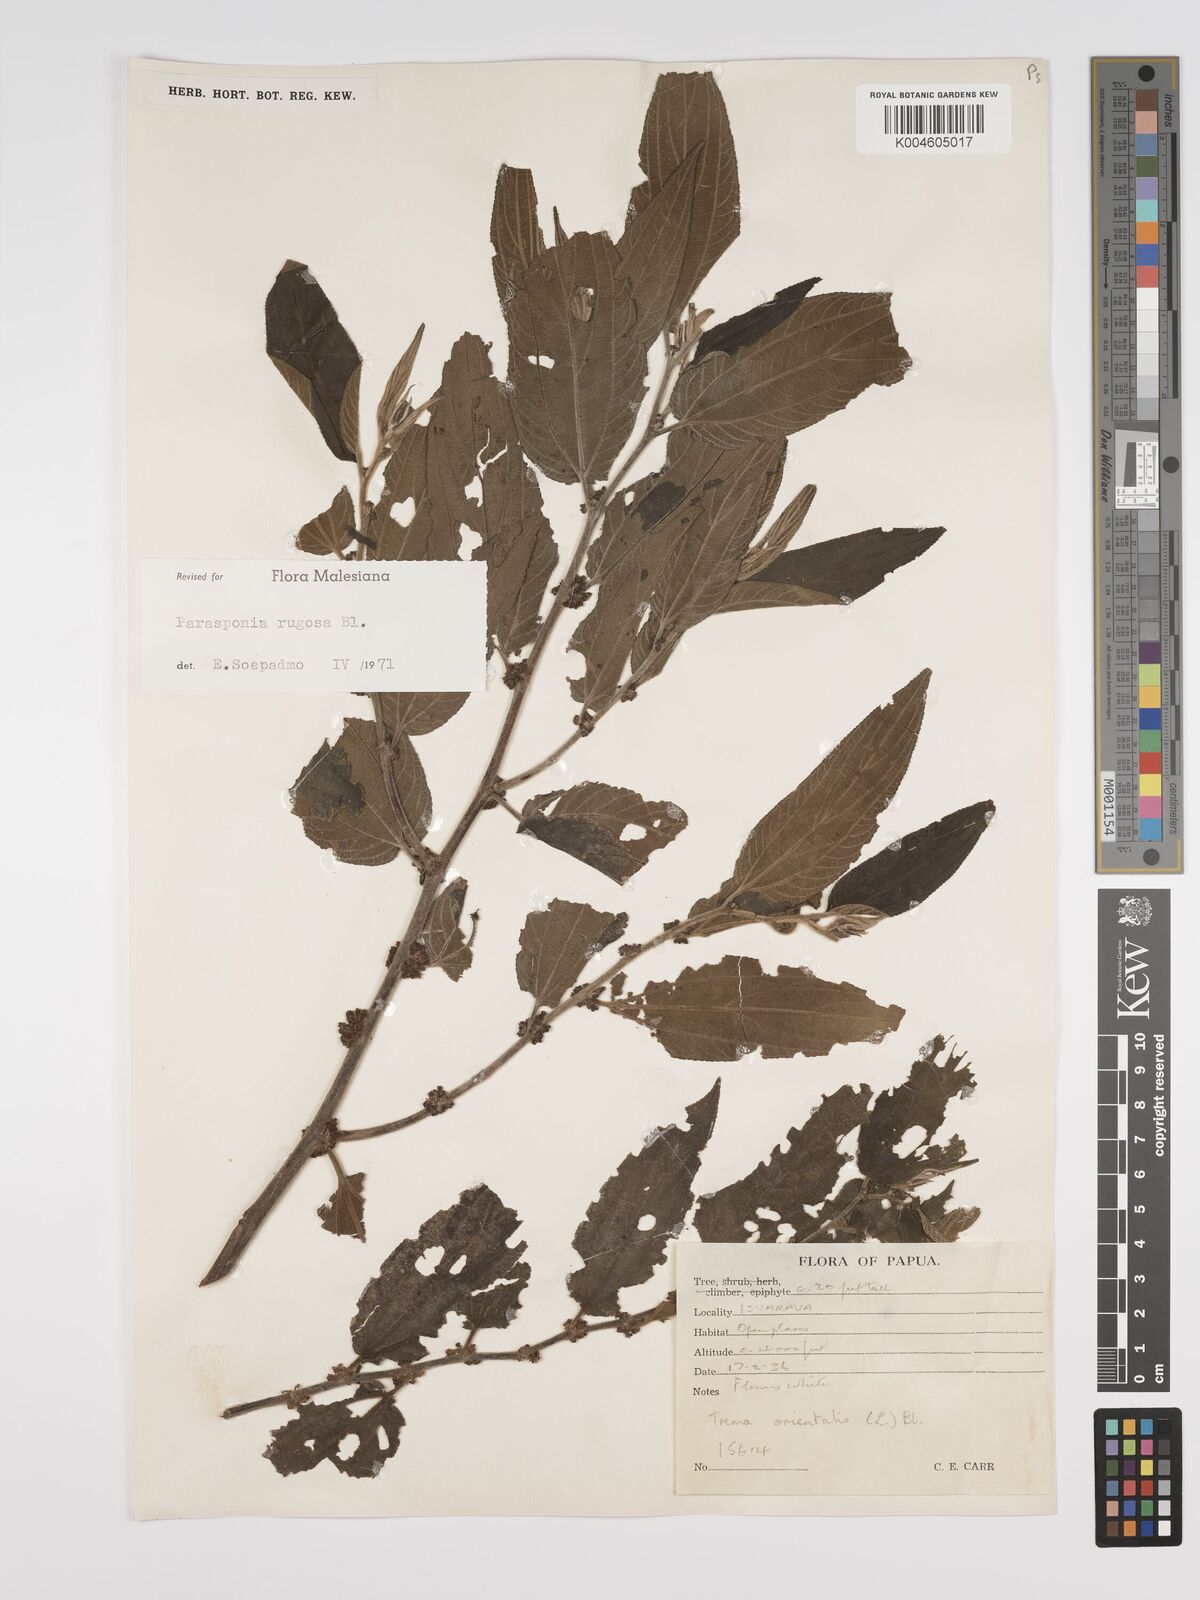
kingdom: Plantae
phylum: Tracheophyta
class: Magnoliopsida
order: Rosales
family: Cannabaceae
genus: Trema
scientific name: Trema eurhynchum
